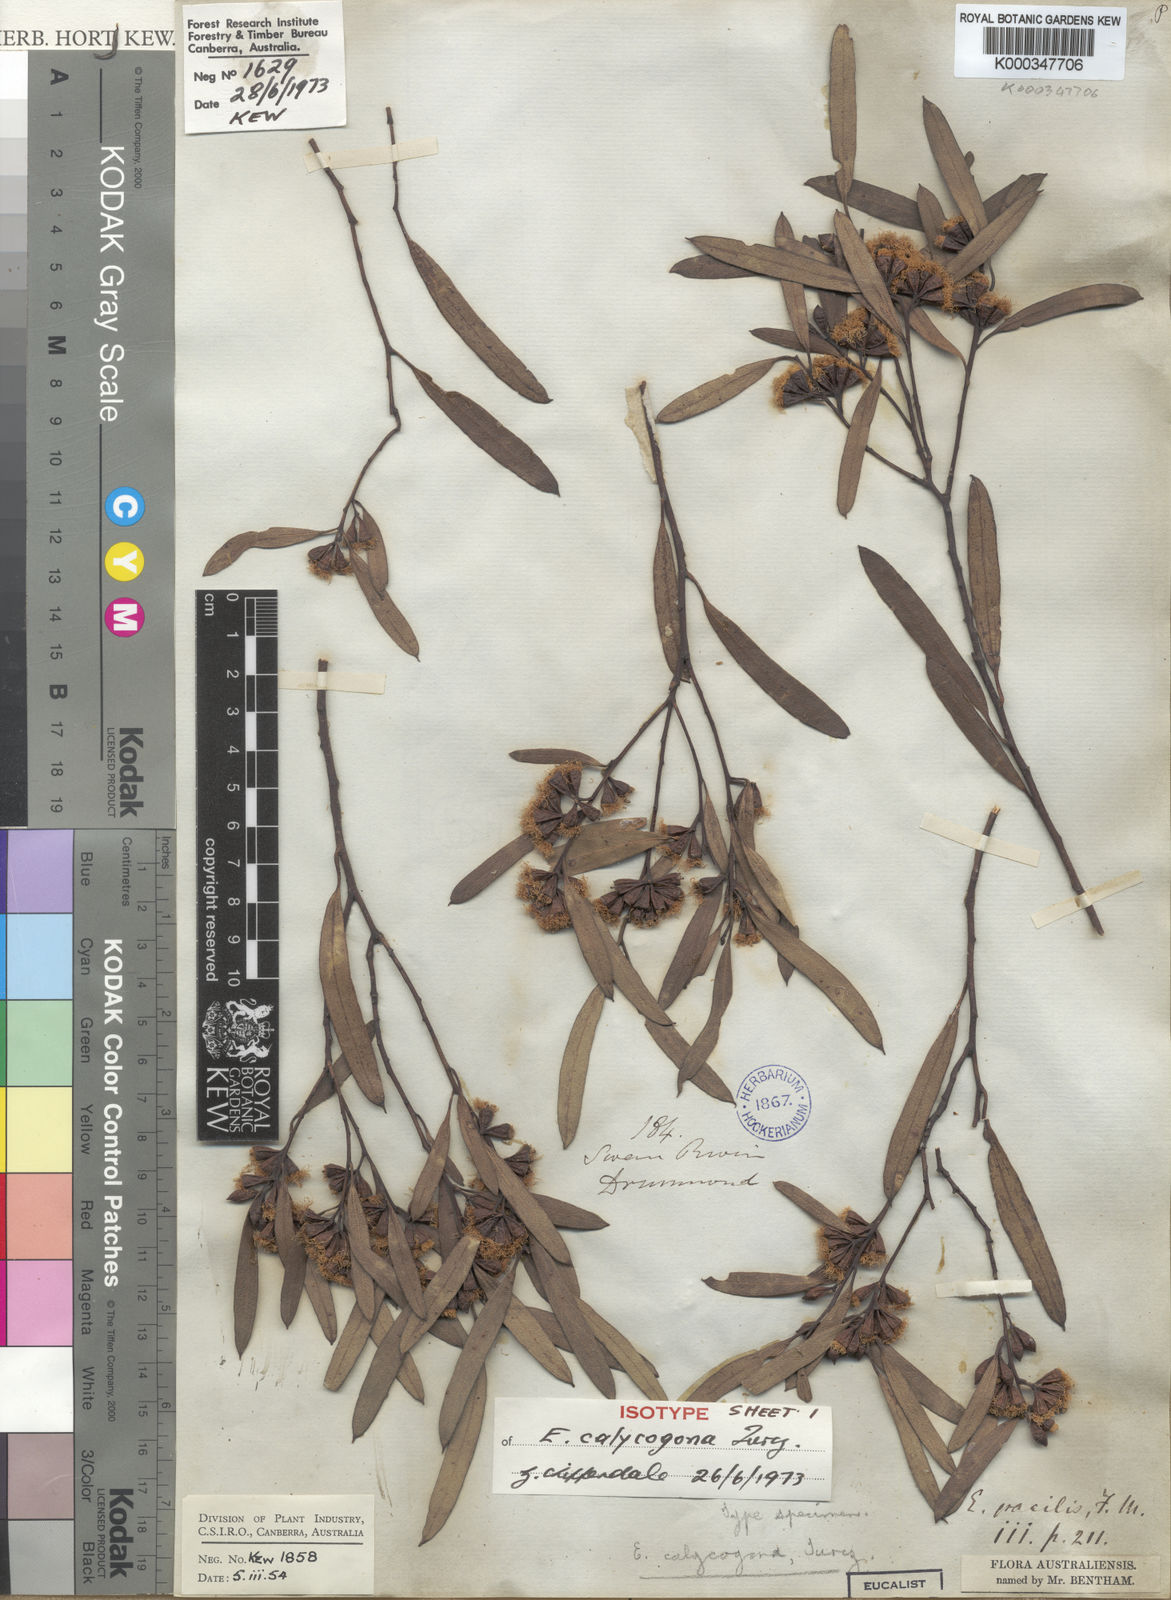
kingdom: Plantae
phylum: Tracheophyta
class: Magnoliopsida
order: Myrtales
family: Myrtaceae
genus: Eucalyptus
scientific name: Eucalyptus calycogona
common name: Marvel mallee
